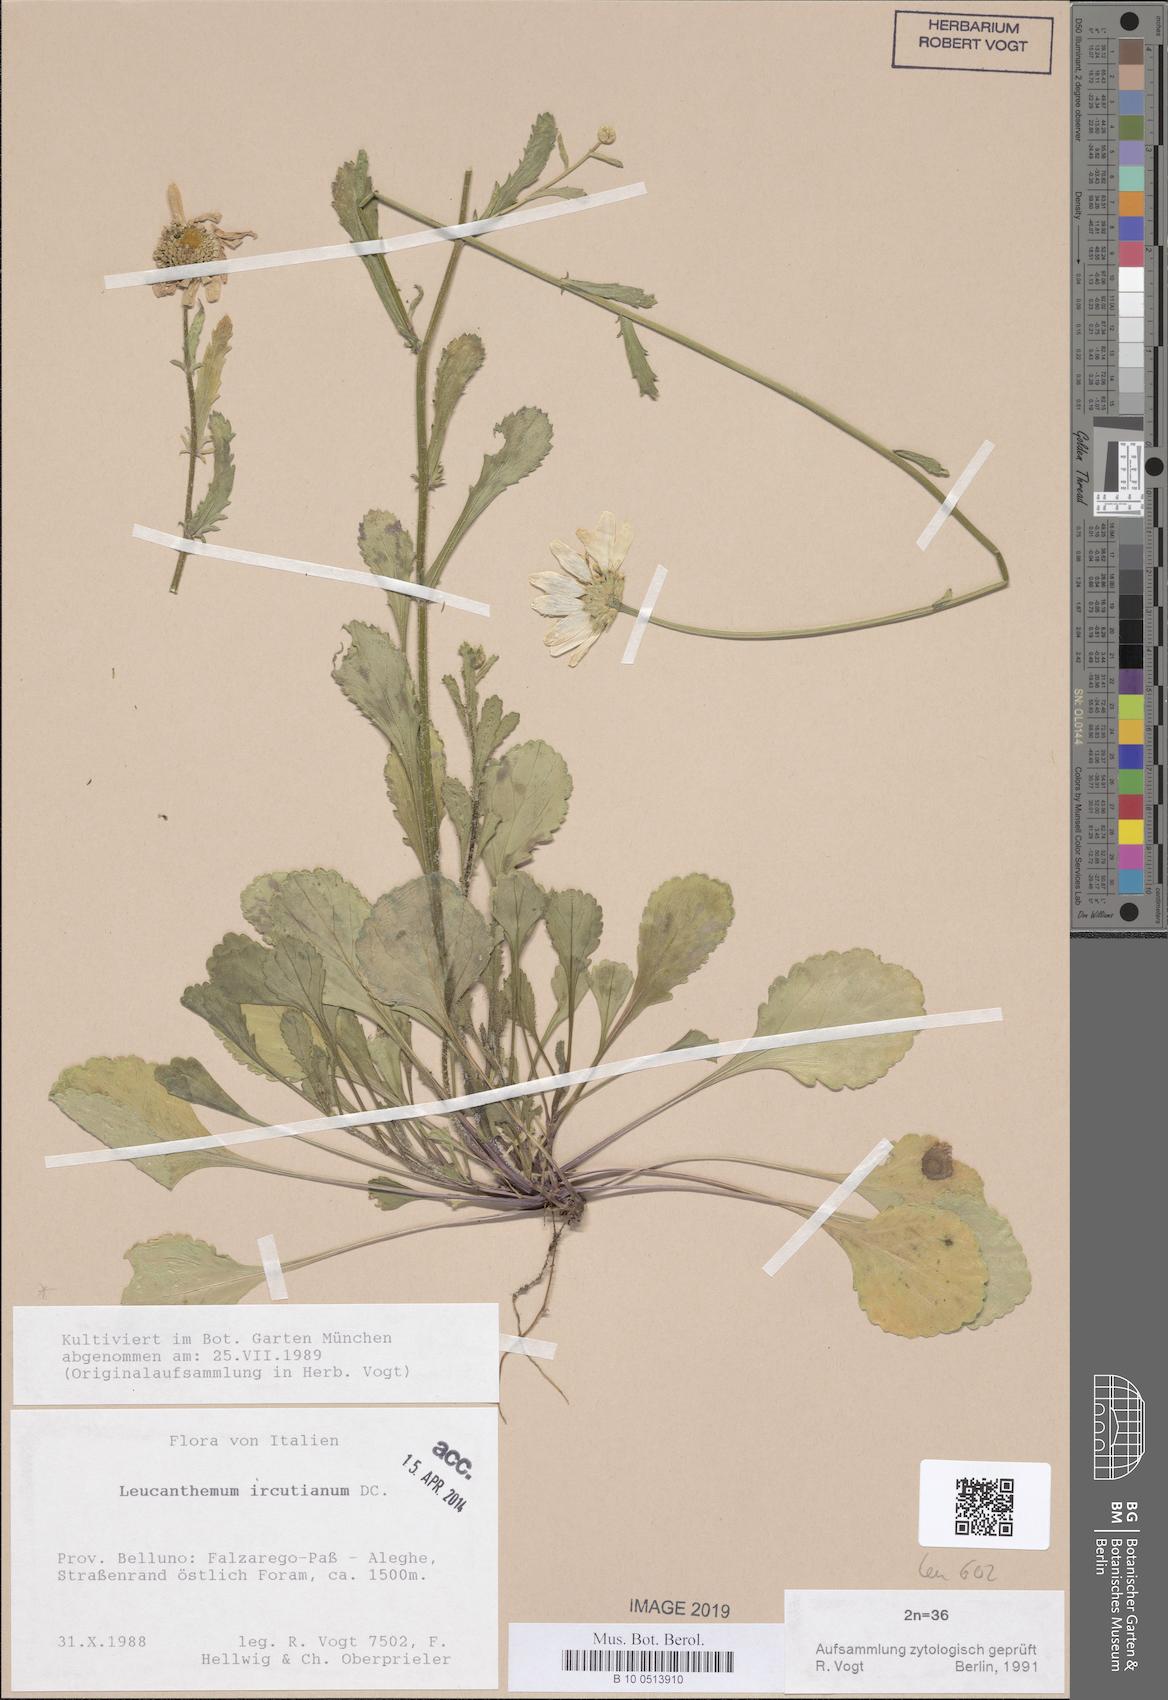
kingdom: Plantae
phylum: Tracheophyta
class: Magnoliopsida
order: Asterales
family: Asteraceae
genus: Leucanthemum
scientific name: Leucanthemum ircutianum
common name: Daisy
